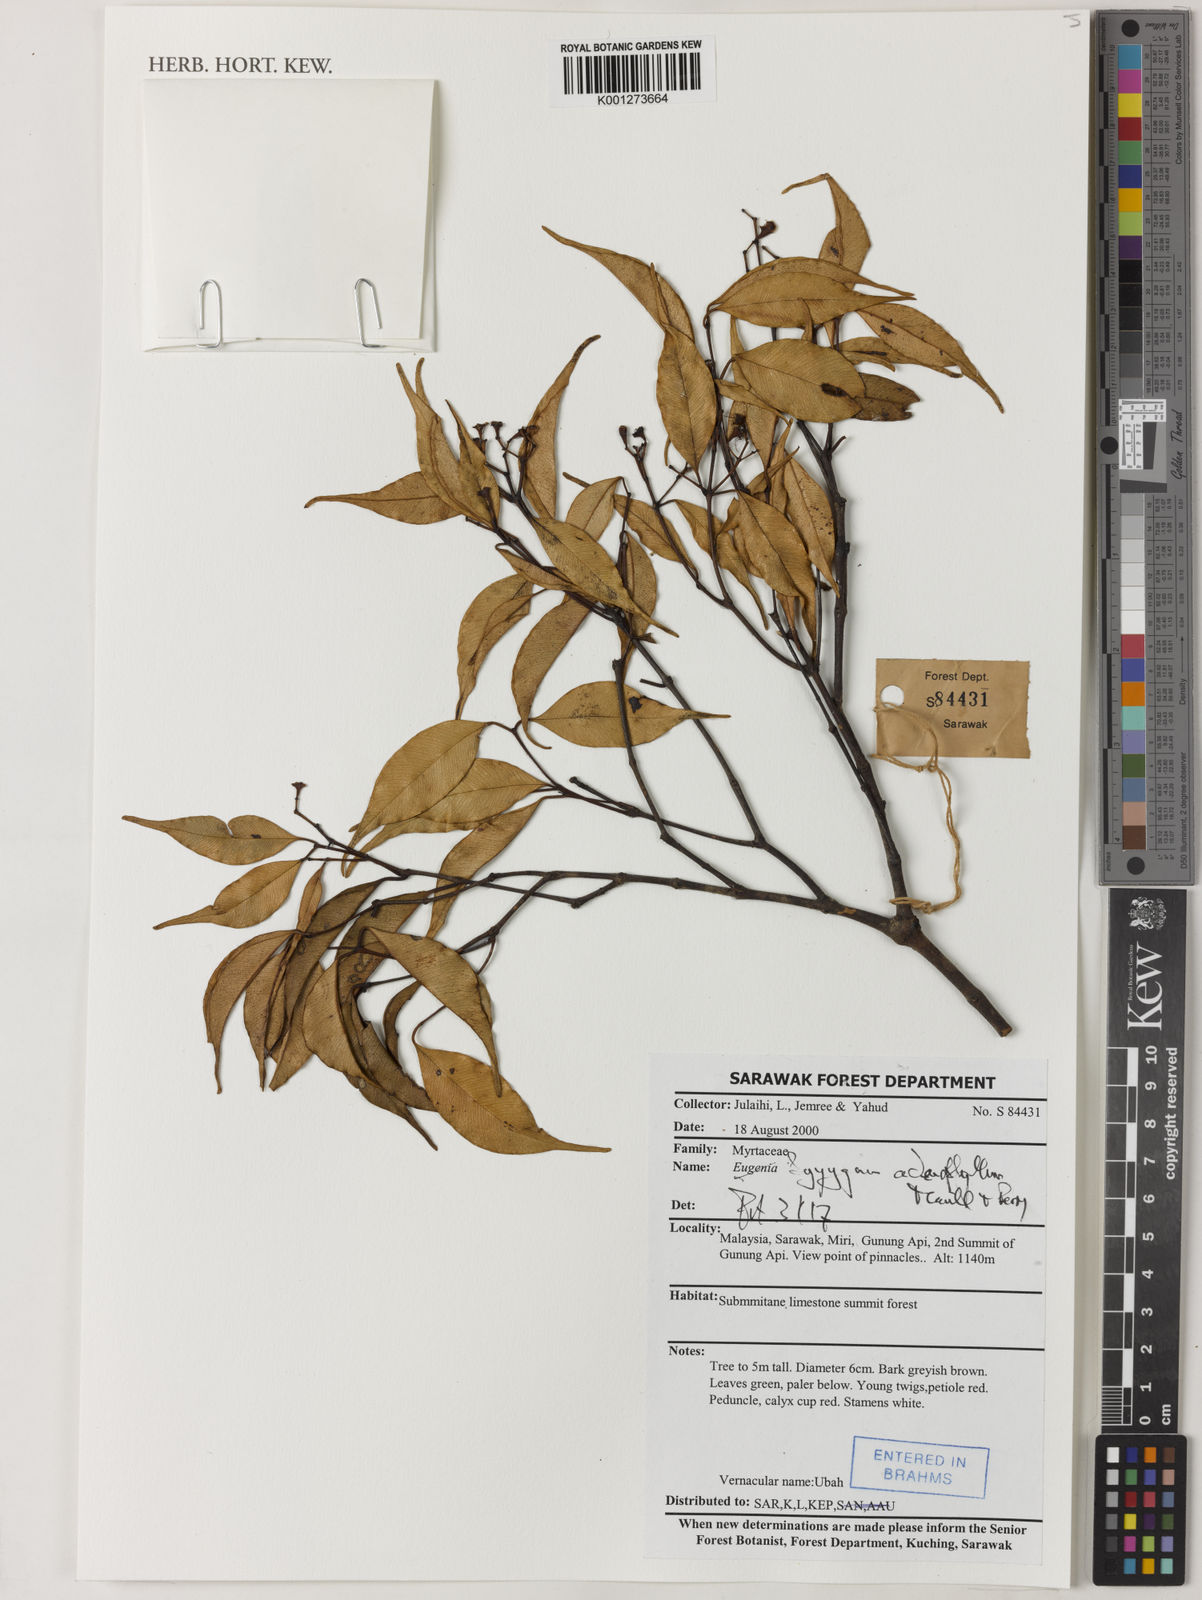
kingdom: Plantae
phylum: Tracheophyta
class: Magnoliopsida
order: Myrtales
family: Myrtaceae
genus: Syzygium
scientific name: Syzygium adenophyllum
